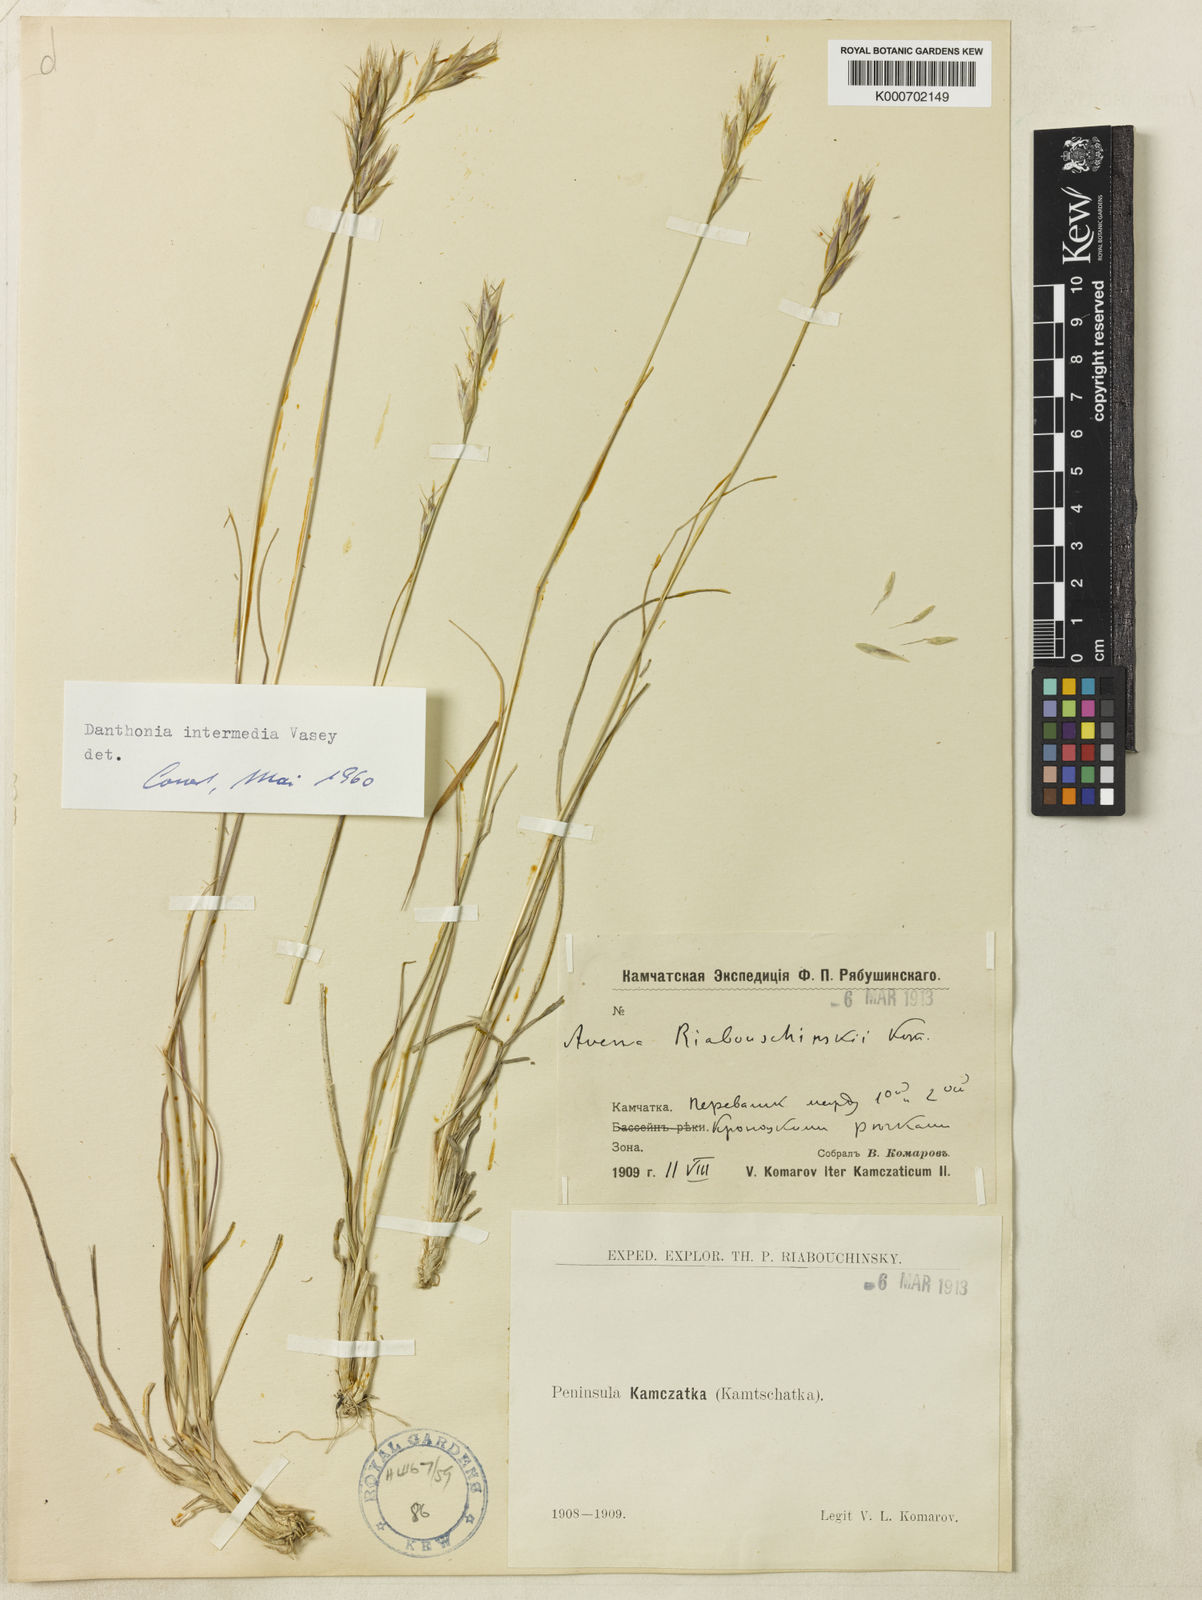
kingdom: Plantae
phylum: Tracheophyta
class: Liliopsida
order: Poales
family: Poaceae
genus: Danthonia
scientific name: Danthonia intermedia
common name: Intermediate oat grass
